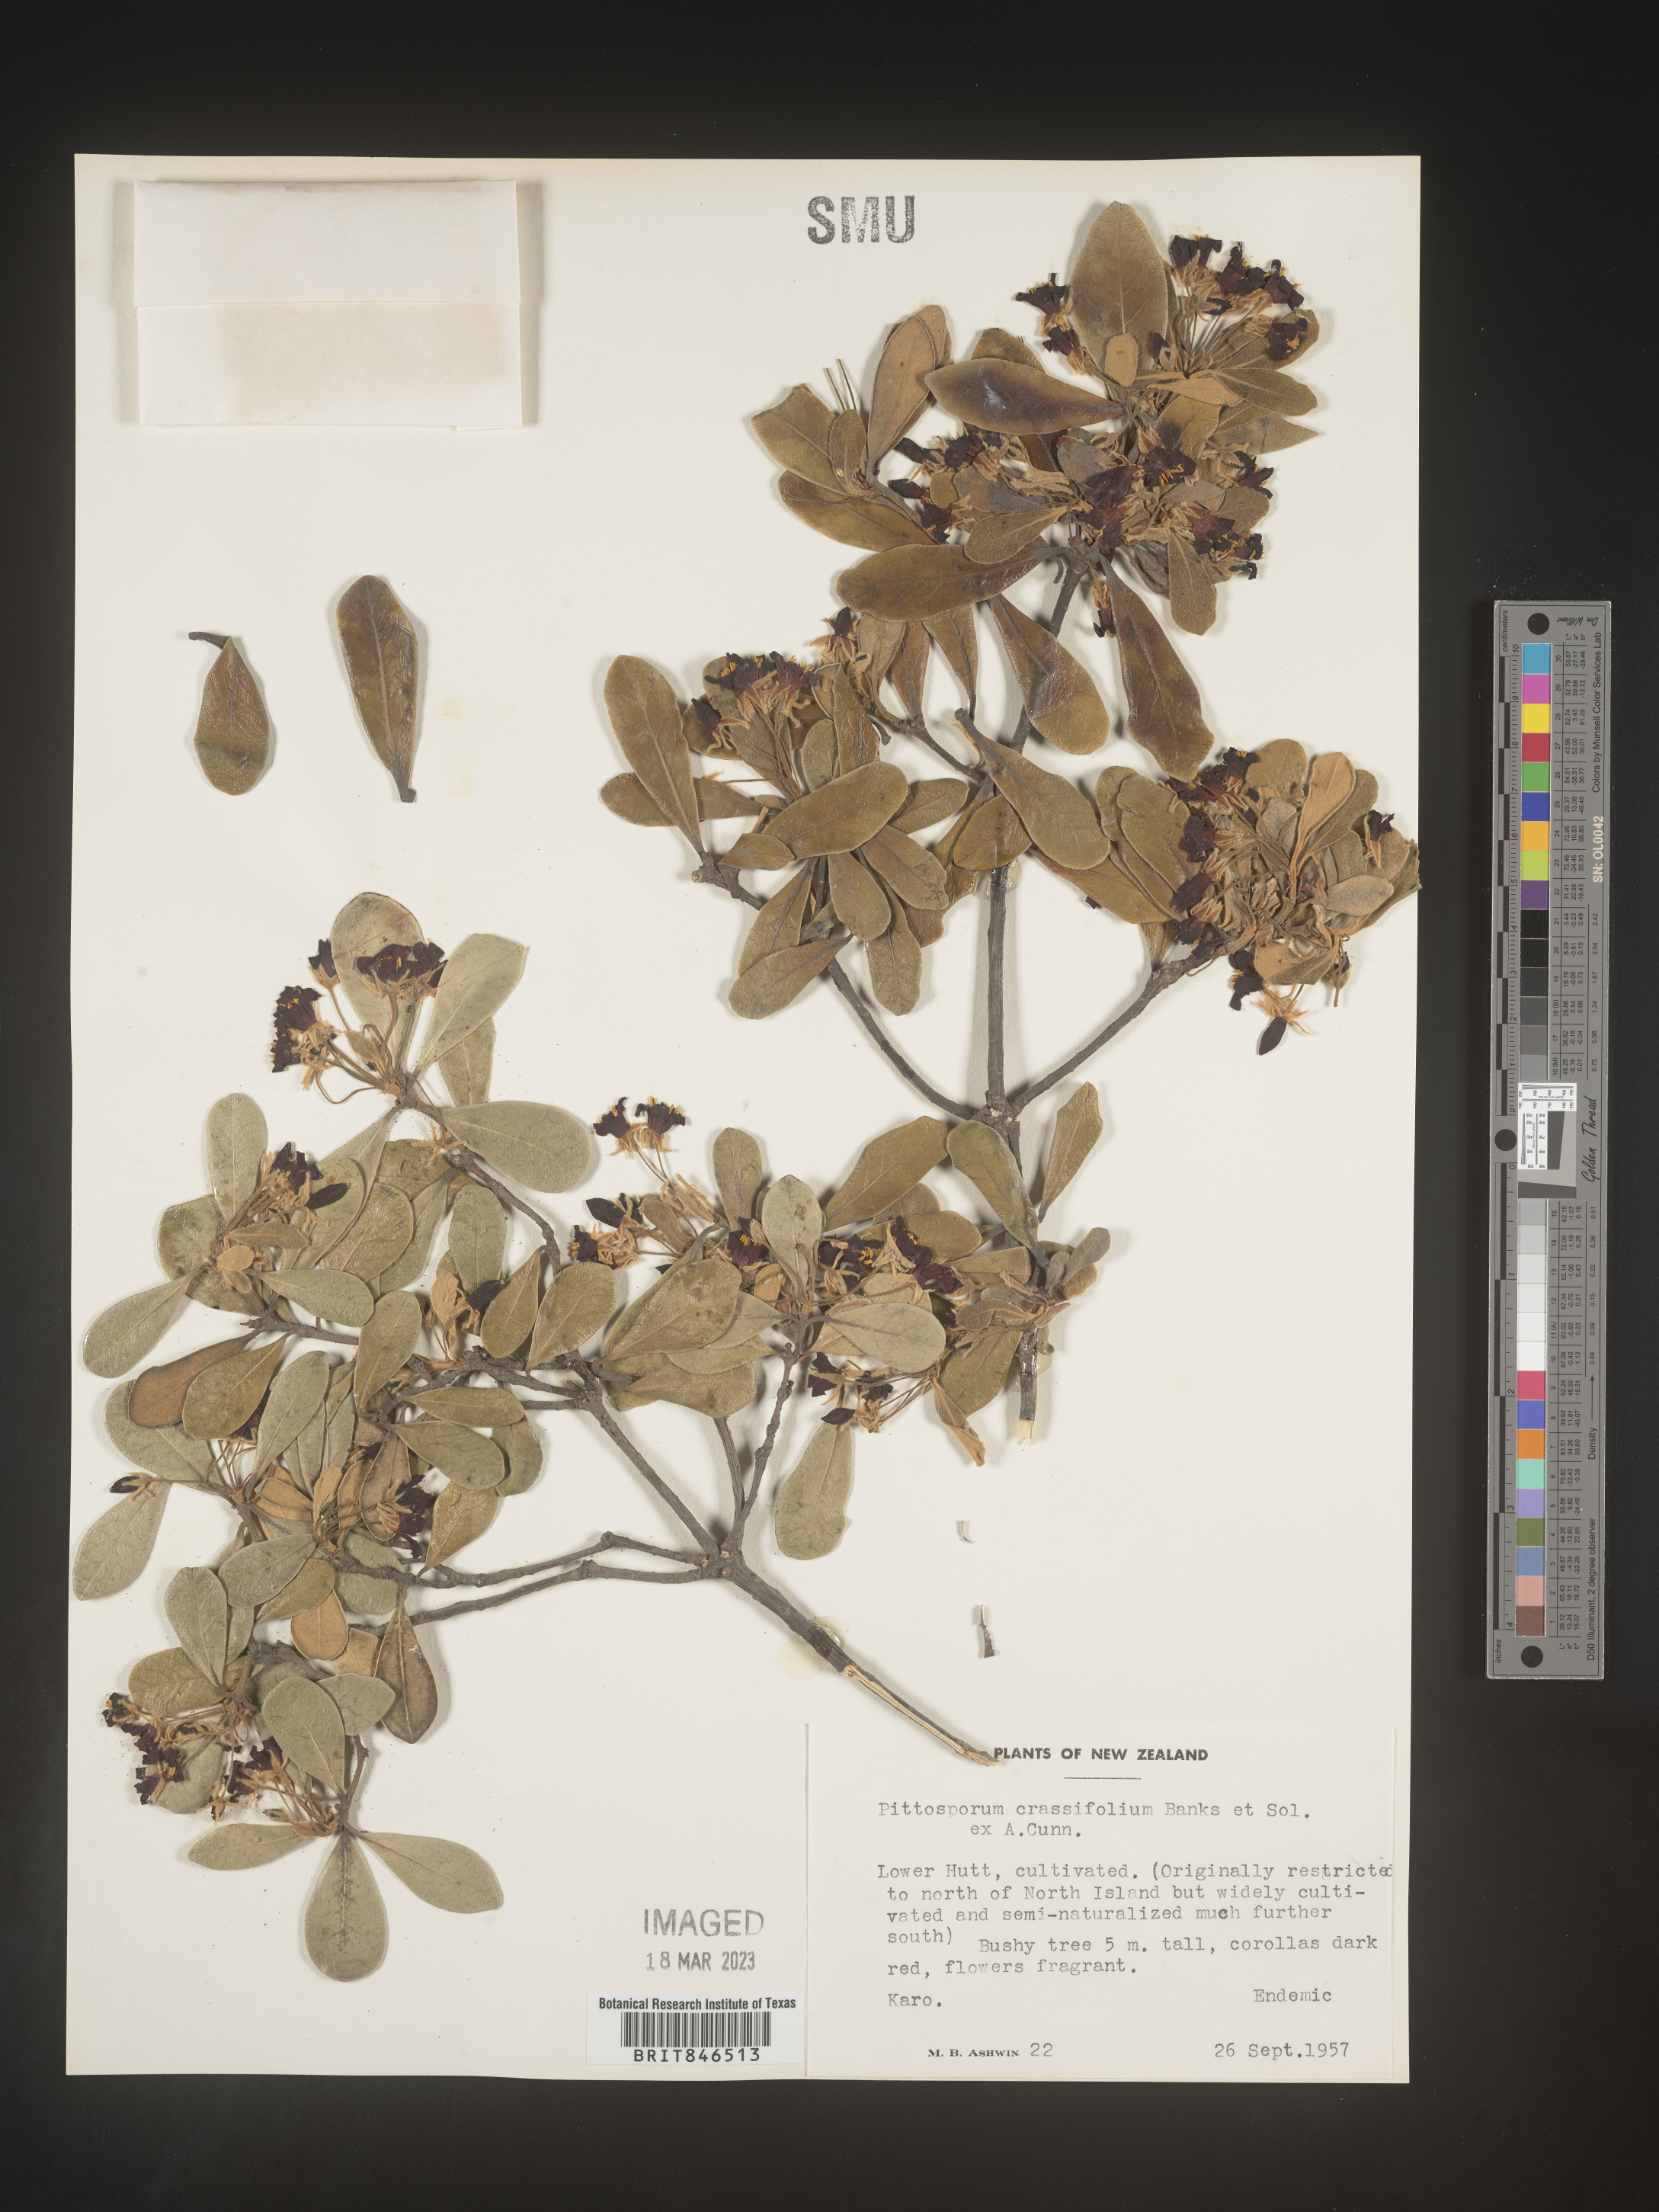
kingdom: Plantae
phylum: Tracheophyta
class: Magnoliopsida
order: Apiales
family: Pittosporaceae
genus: Pittosporum
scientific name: Pittosporum
